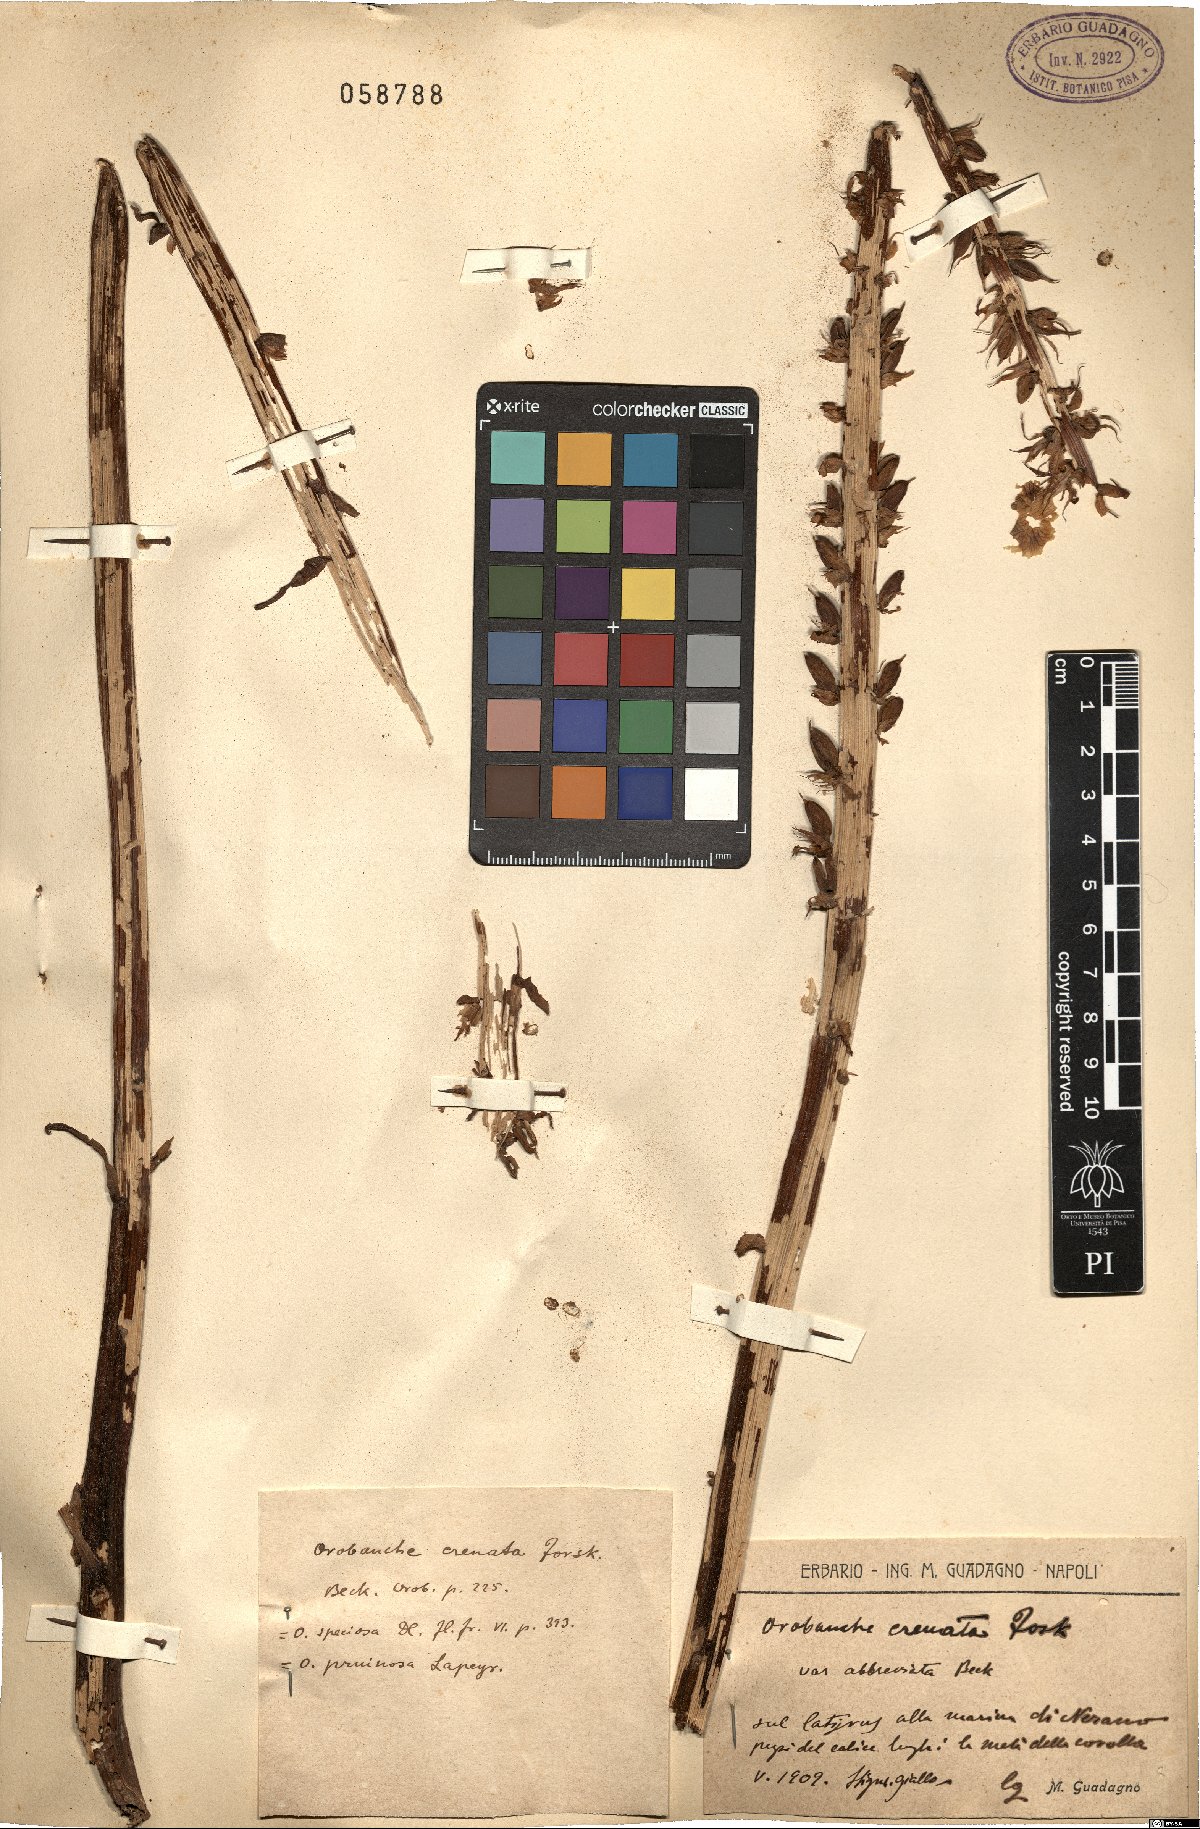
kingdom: Plantae
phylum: Tracheophyta
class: Magnoliopsida
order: Lamiales
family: Orobanchaceae
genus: Orobanche
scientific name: Orobanche crenata
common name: Bean broomrape
